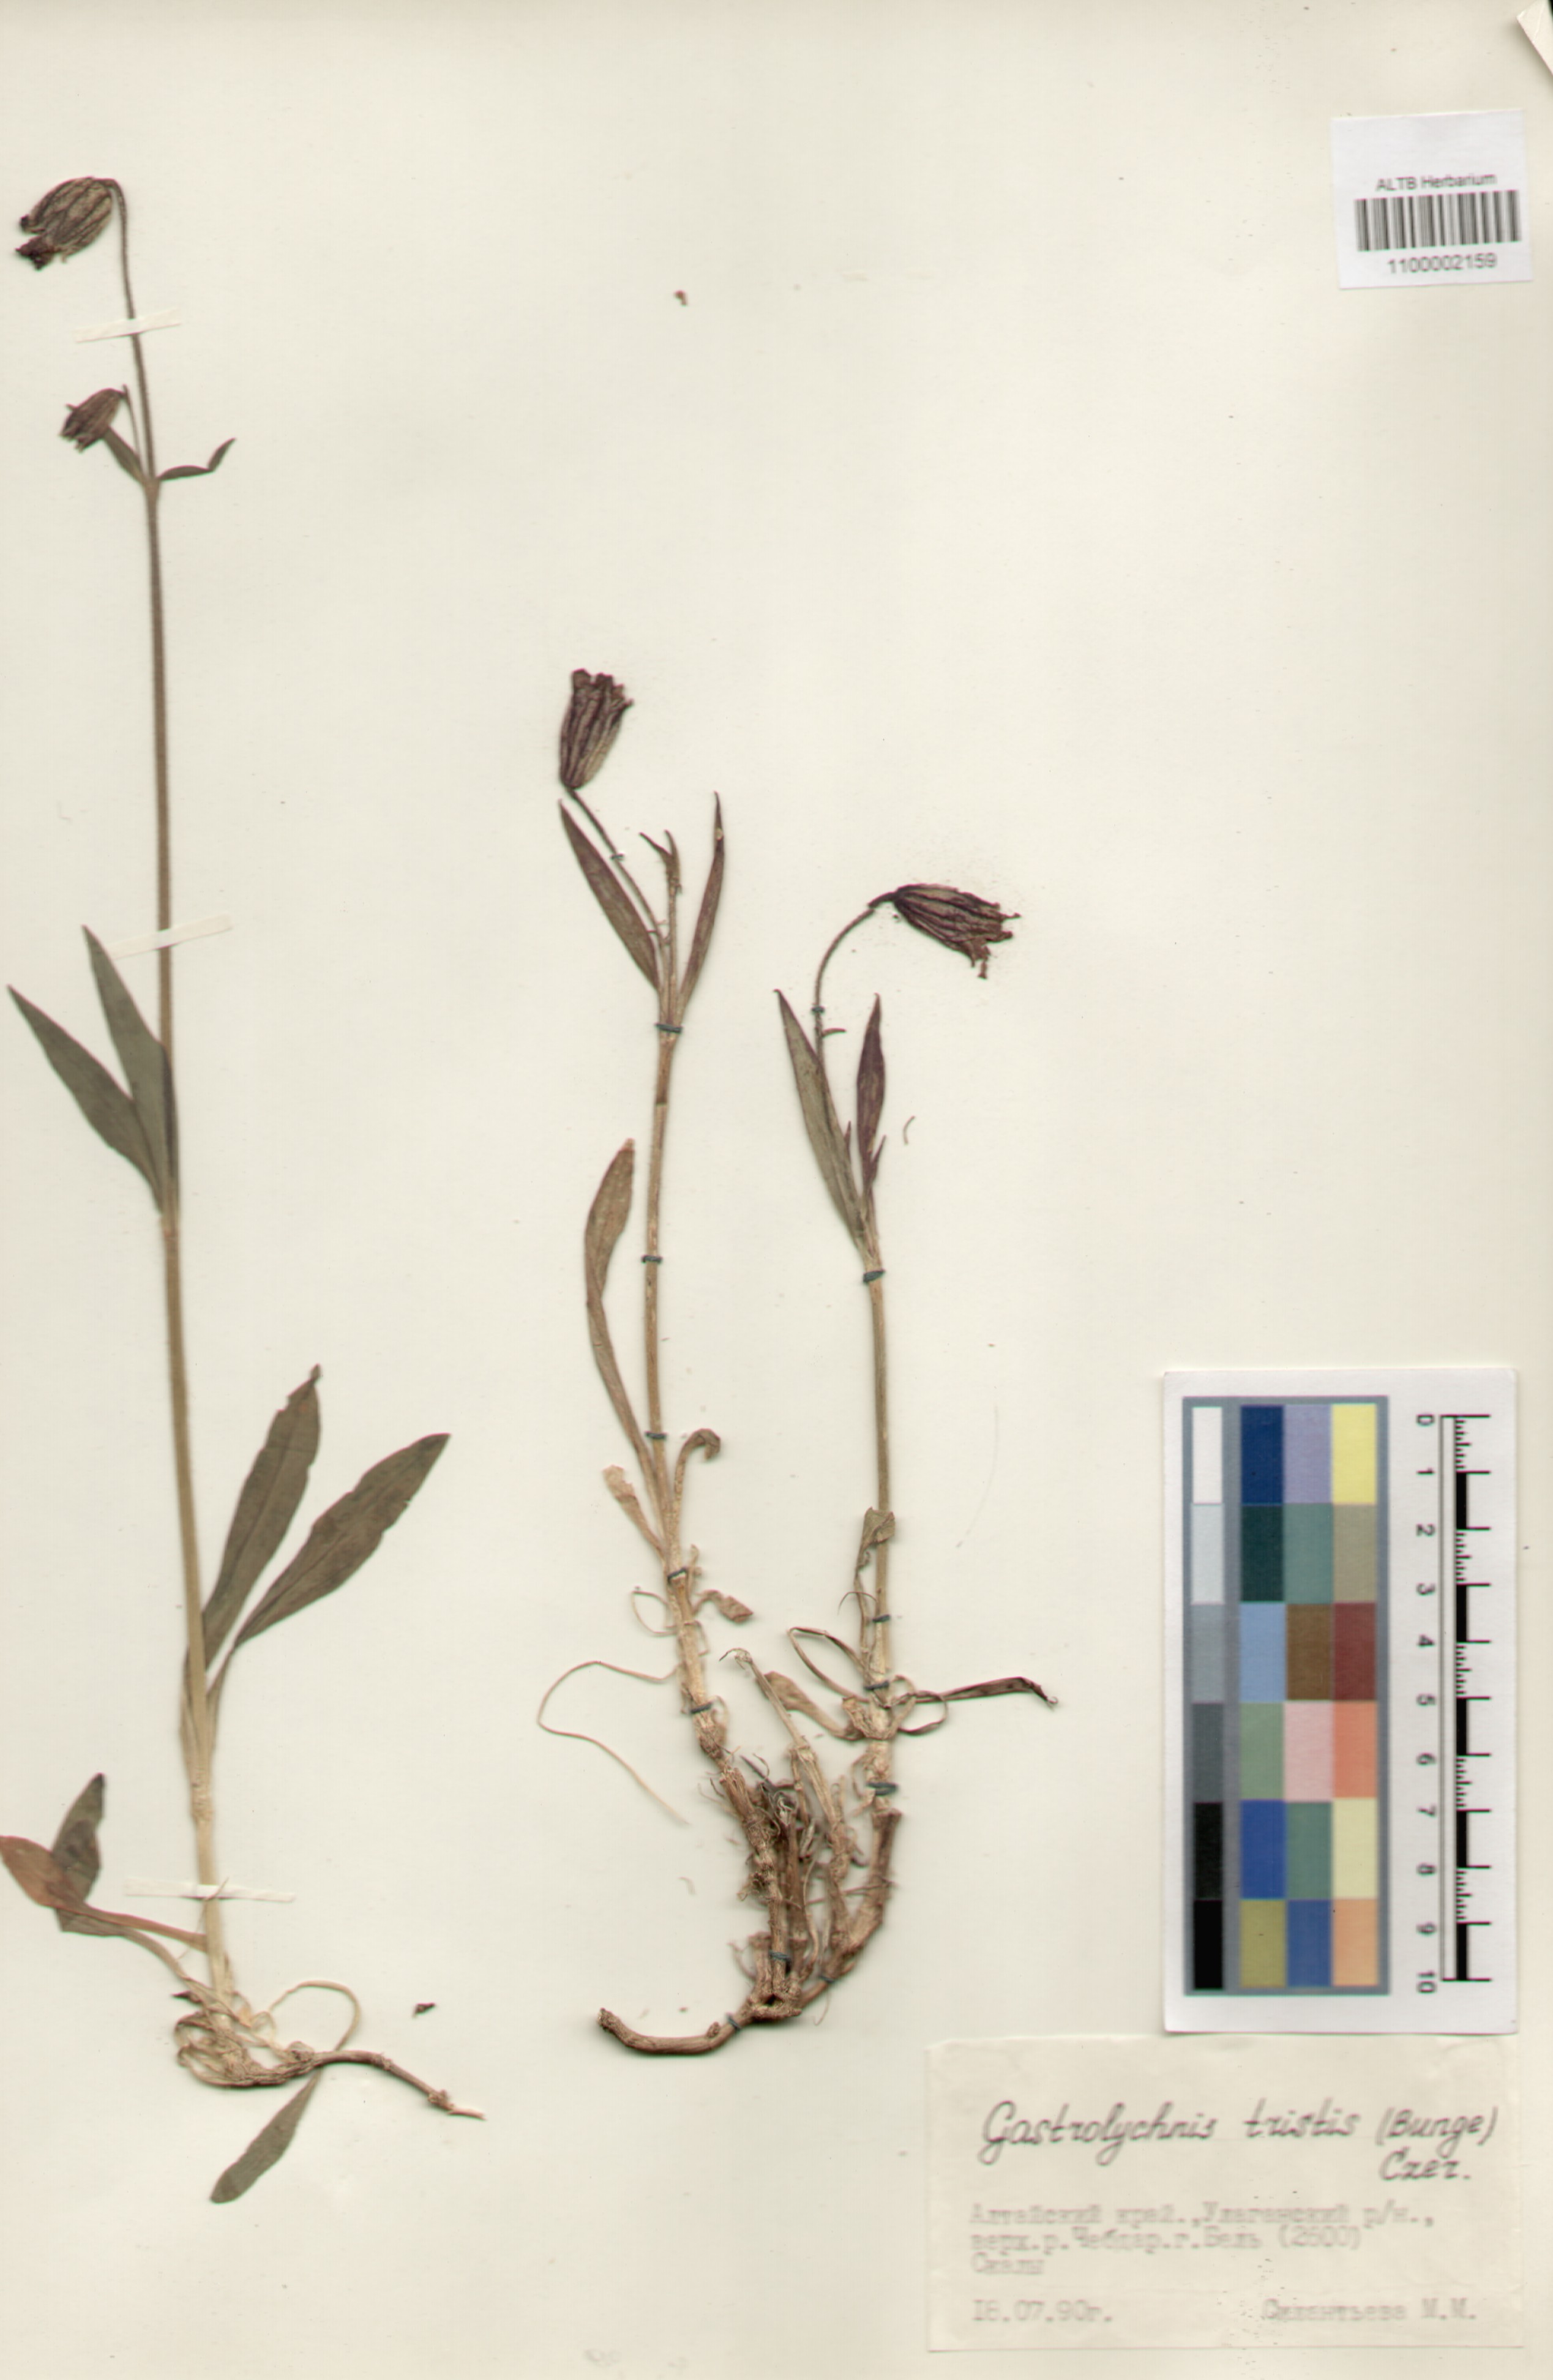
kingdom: Plantae
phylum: Tracheophyta
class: Magnoliopsida
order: Caryophyllales
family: Caryophyllaceae
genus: Silene
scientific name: Silene bungei
